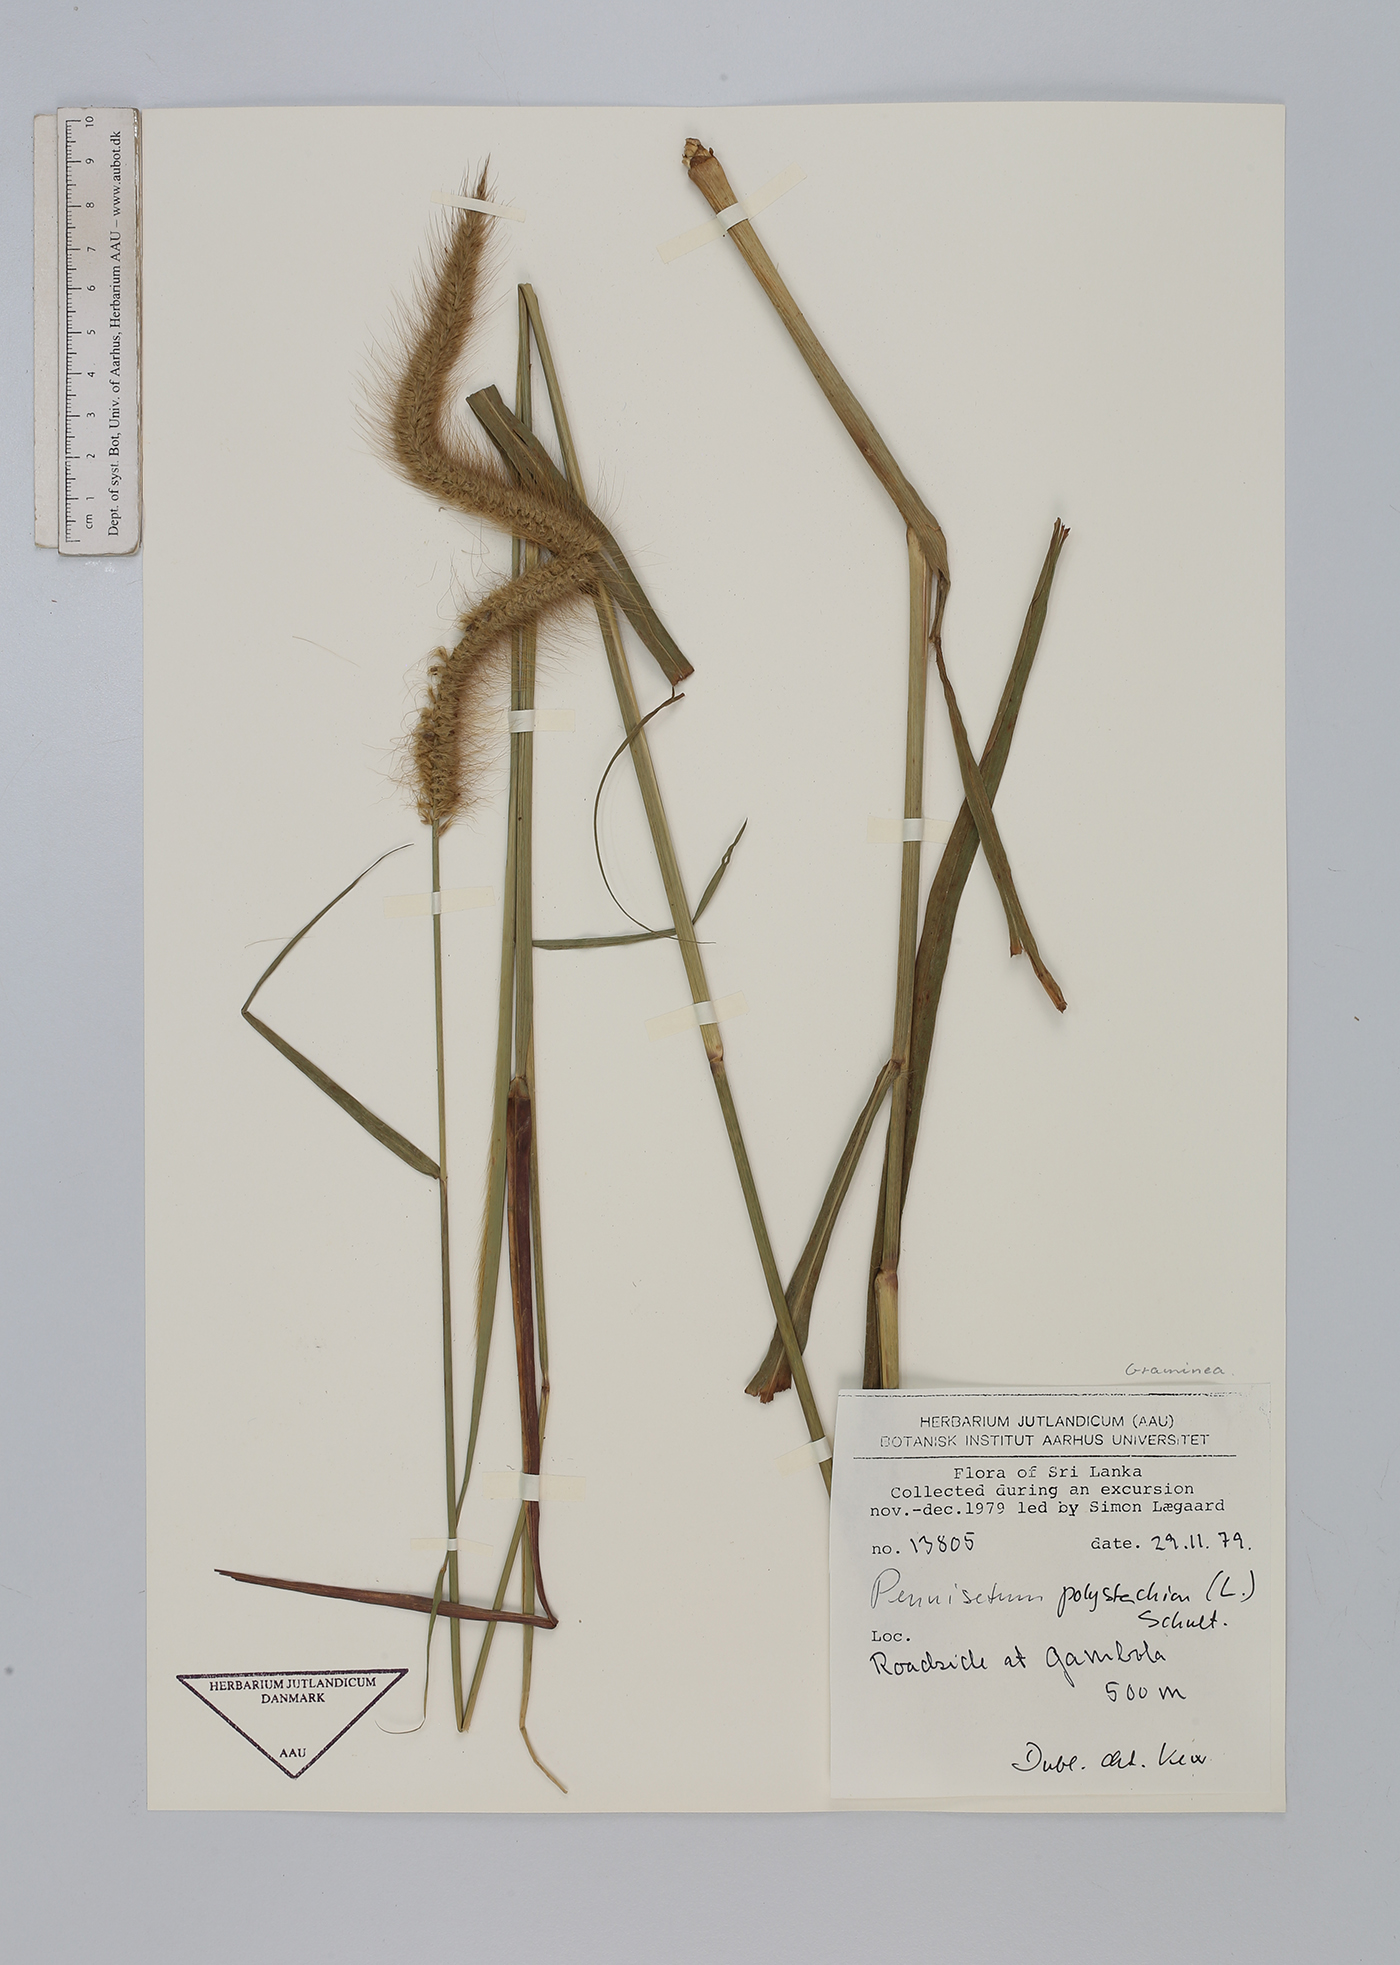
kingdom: Plantae
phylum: Tracheophyta
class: Liliopsida
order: Poales
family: Poaceae
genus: Setaria
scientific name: Setaria parviflora
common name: Knotroot bristle-grass
